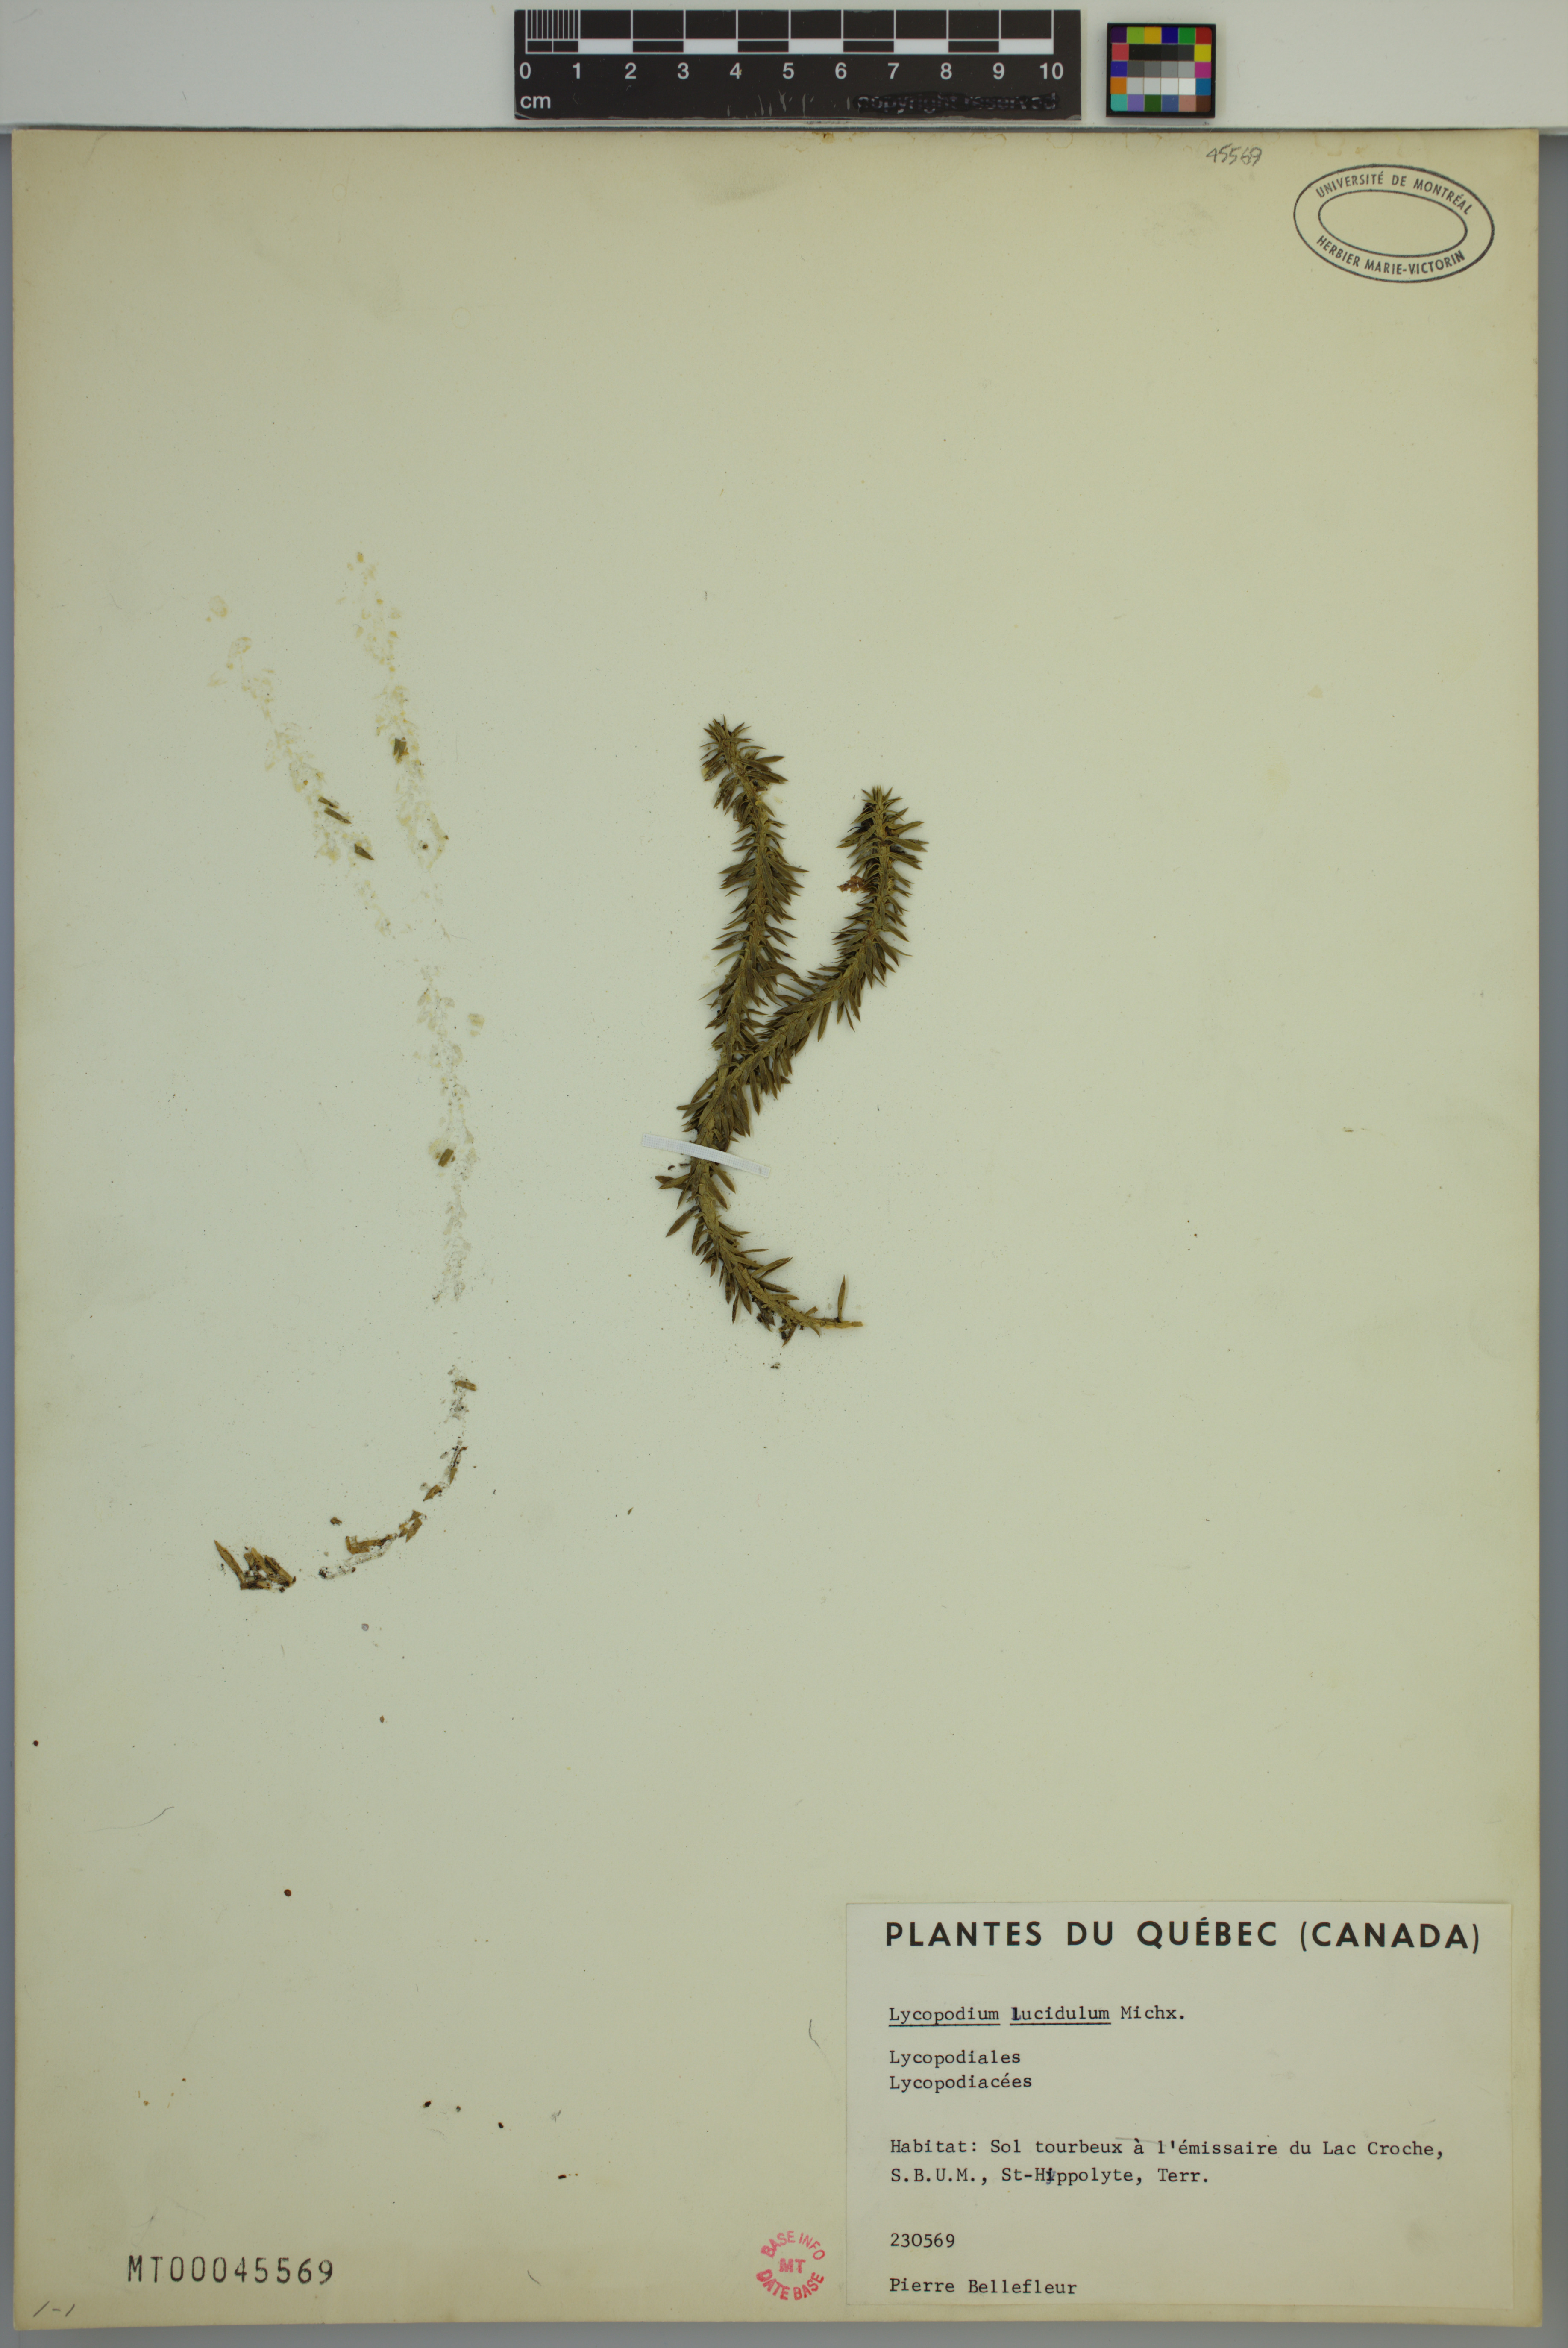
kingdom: Plantae
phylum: Tracheophyta
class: Lycopodiopsida
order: Lycopodiales
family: Lycopodiaceae
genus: Huperzia
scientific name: Huperzia lucidula
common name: Shining clubmoss
